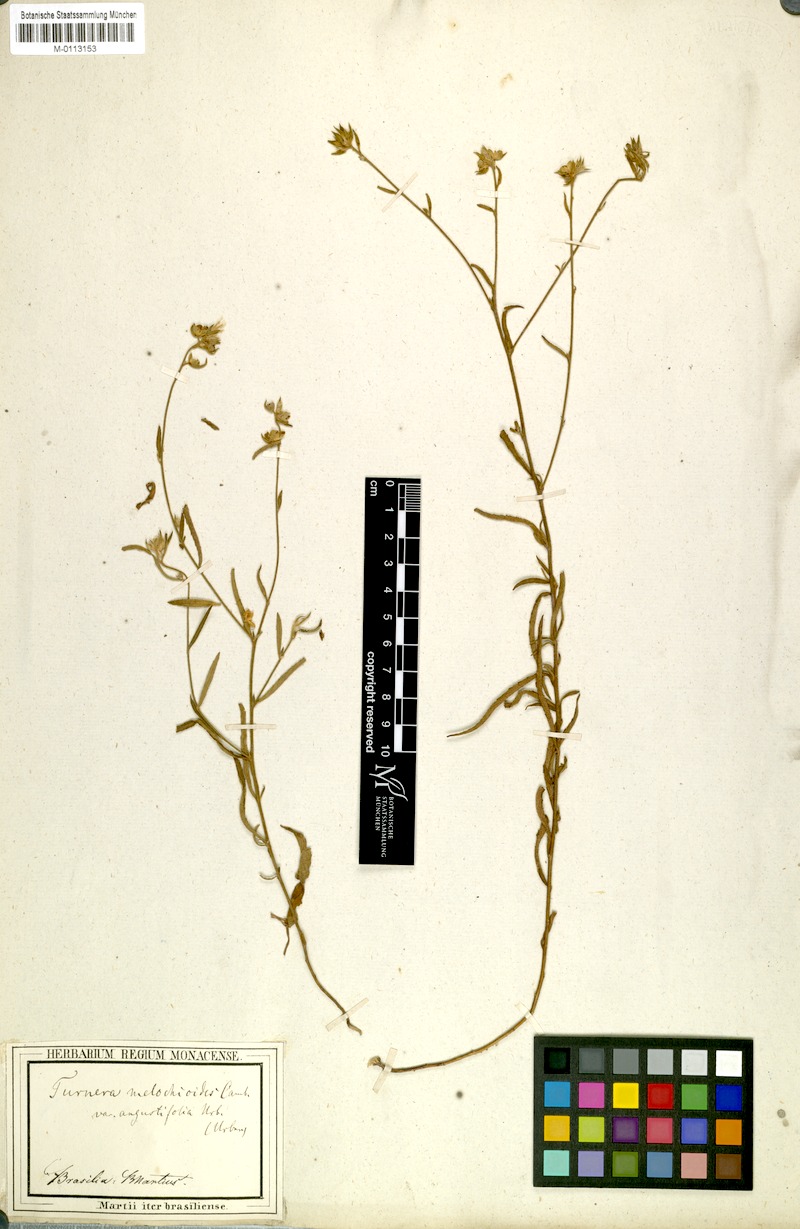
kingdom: Plantae
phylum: Tracheophyta
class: Magnoliopsida
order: Malpighiales
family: Turneraceae
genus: Turnera
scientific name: Turnera arenaria
